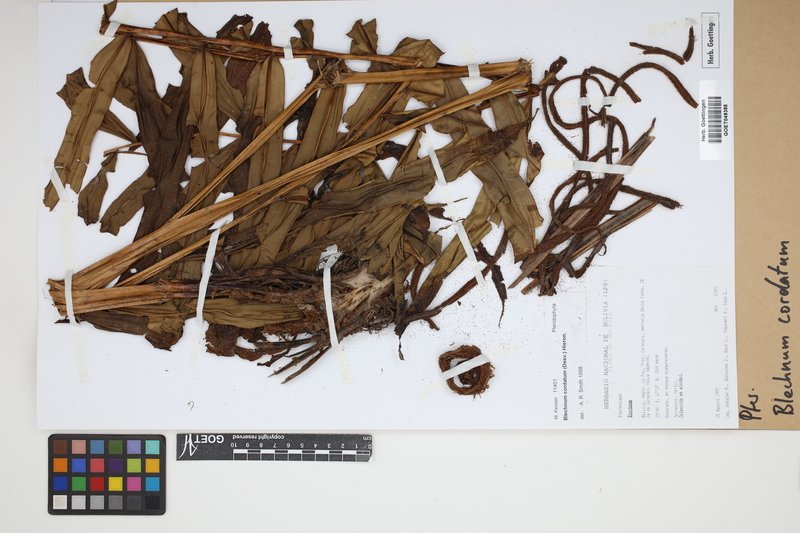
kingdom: Plantae
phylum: Tracheophyta
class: Polypodiopsida
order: Polypodiales
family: Blechnaceae
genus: Parablechnum
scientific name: Parablechnum cordatum
